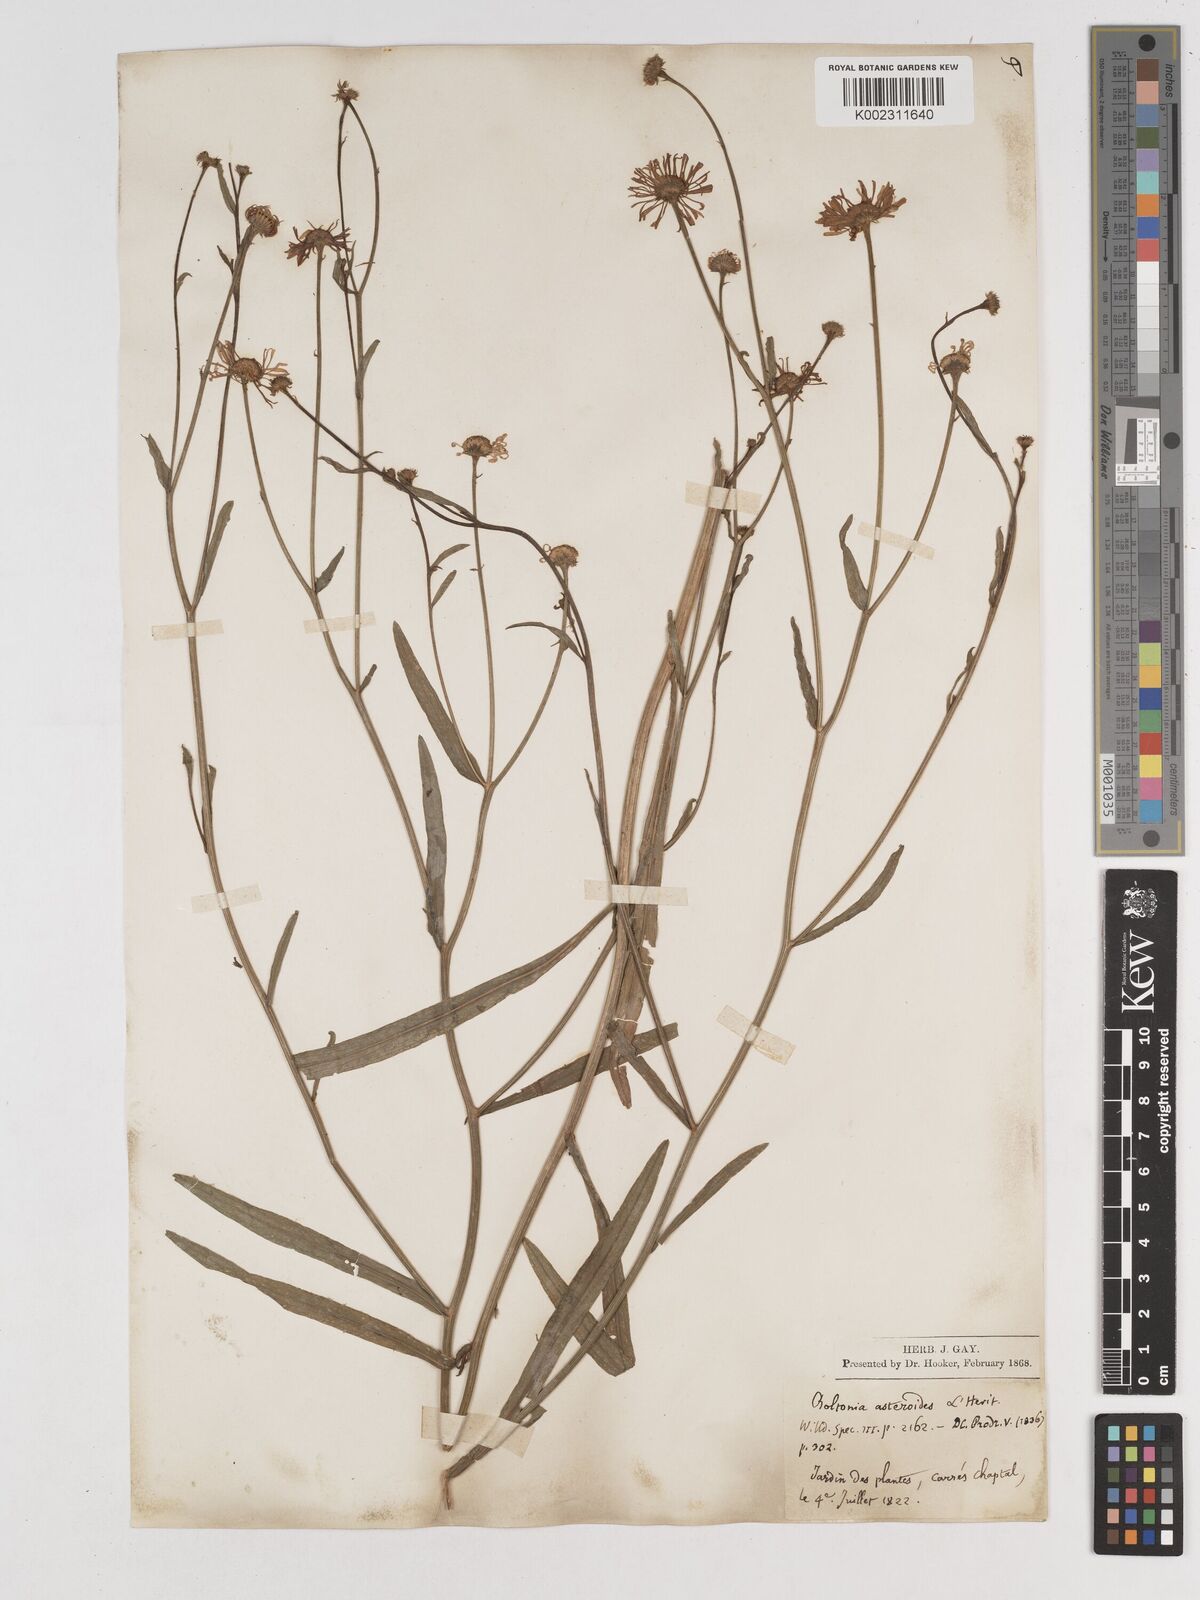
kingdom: Plantae
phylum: Tracheophyta
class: Magnoliopsida
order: Asterales
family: Asteraceae
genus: Boltonia
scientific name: Boltonia diffusa
